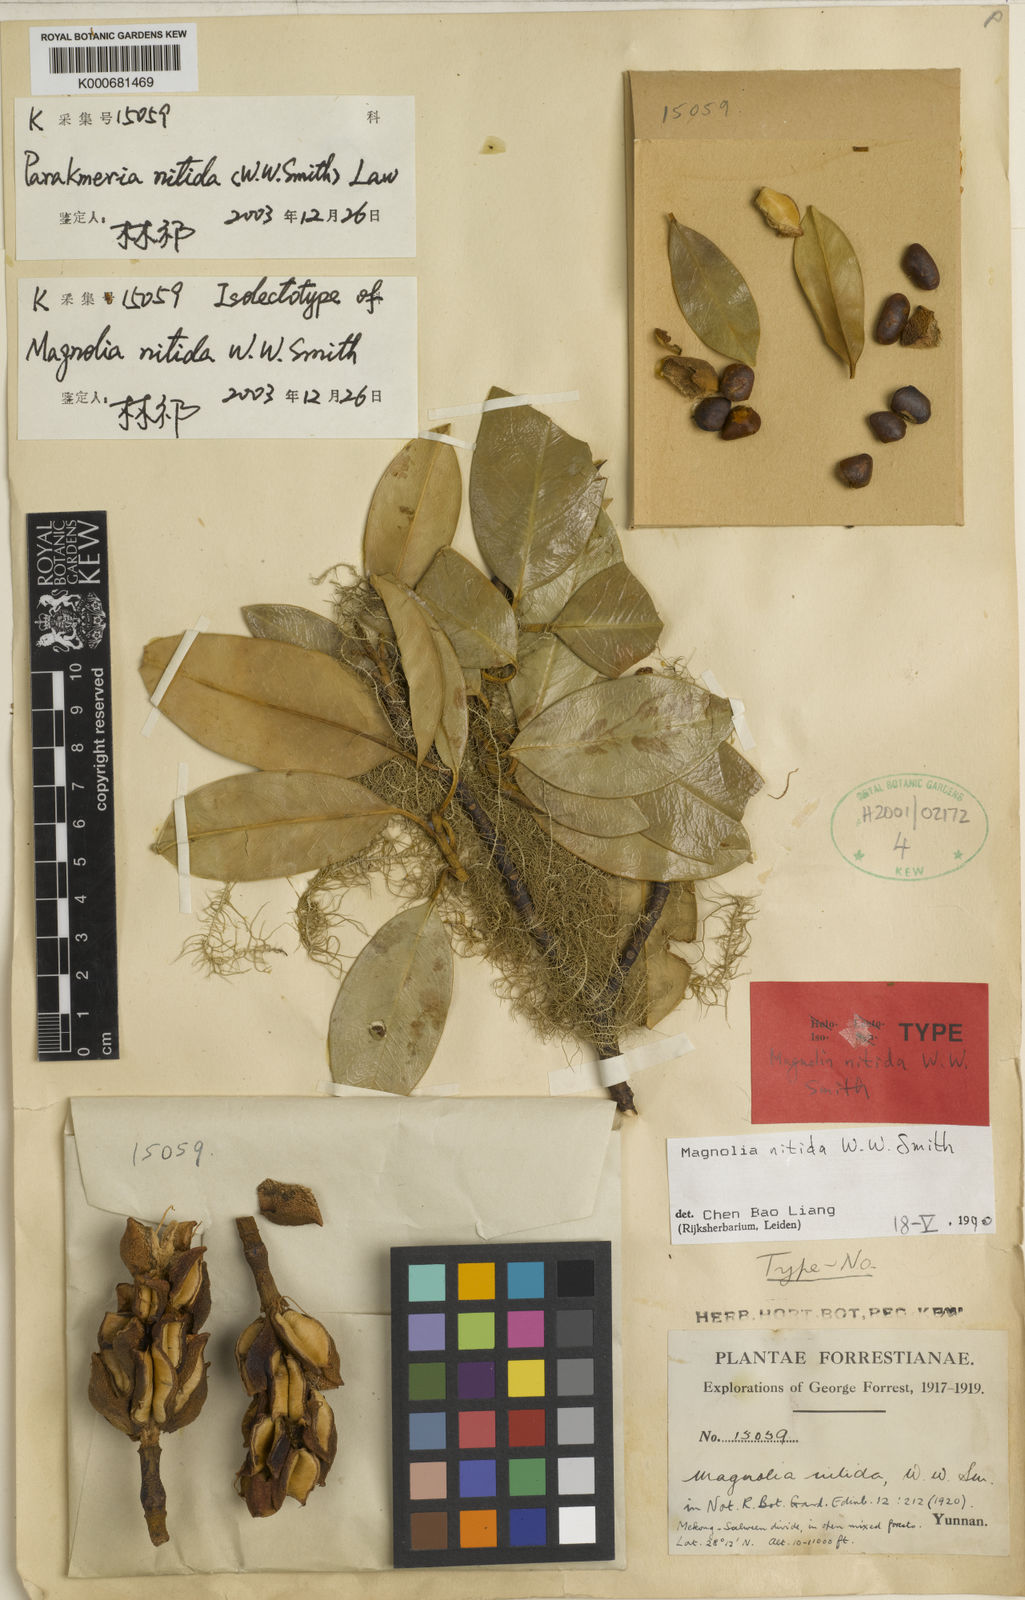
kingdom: Plantae
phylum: Tracheophyta
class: Magnoliopsida
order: Magnoliales
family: Magnoliaceae
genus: Magnolia
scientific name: Magnolia nitida
